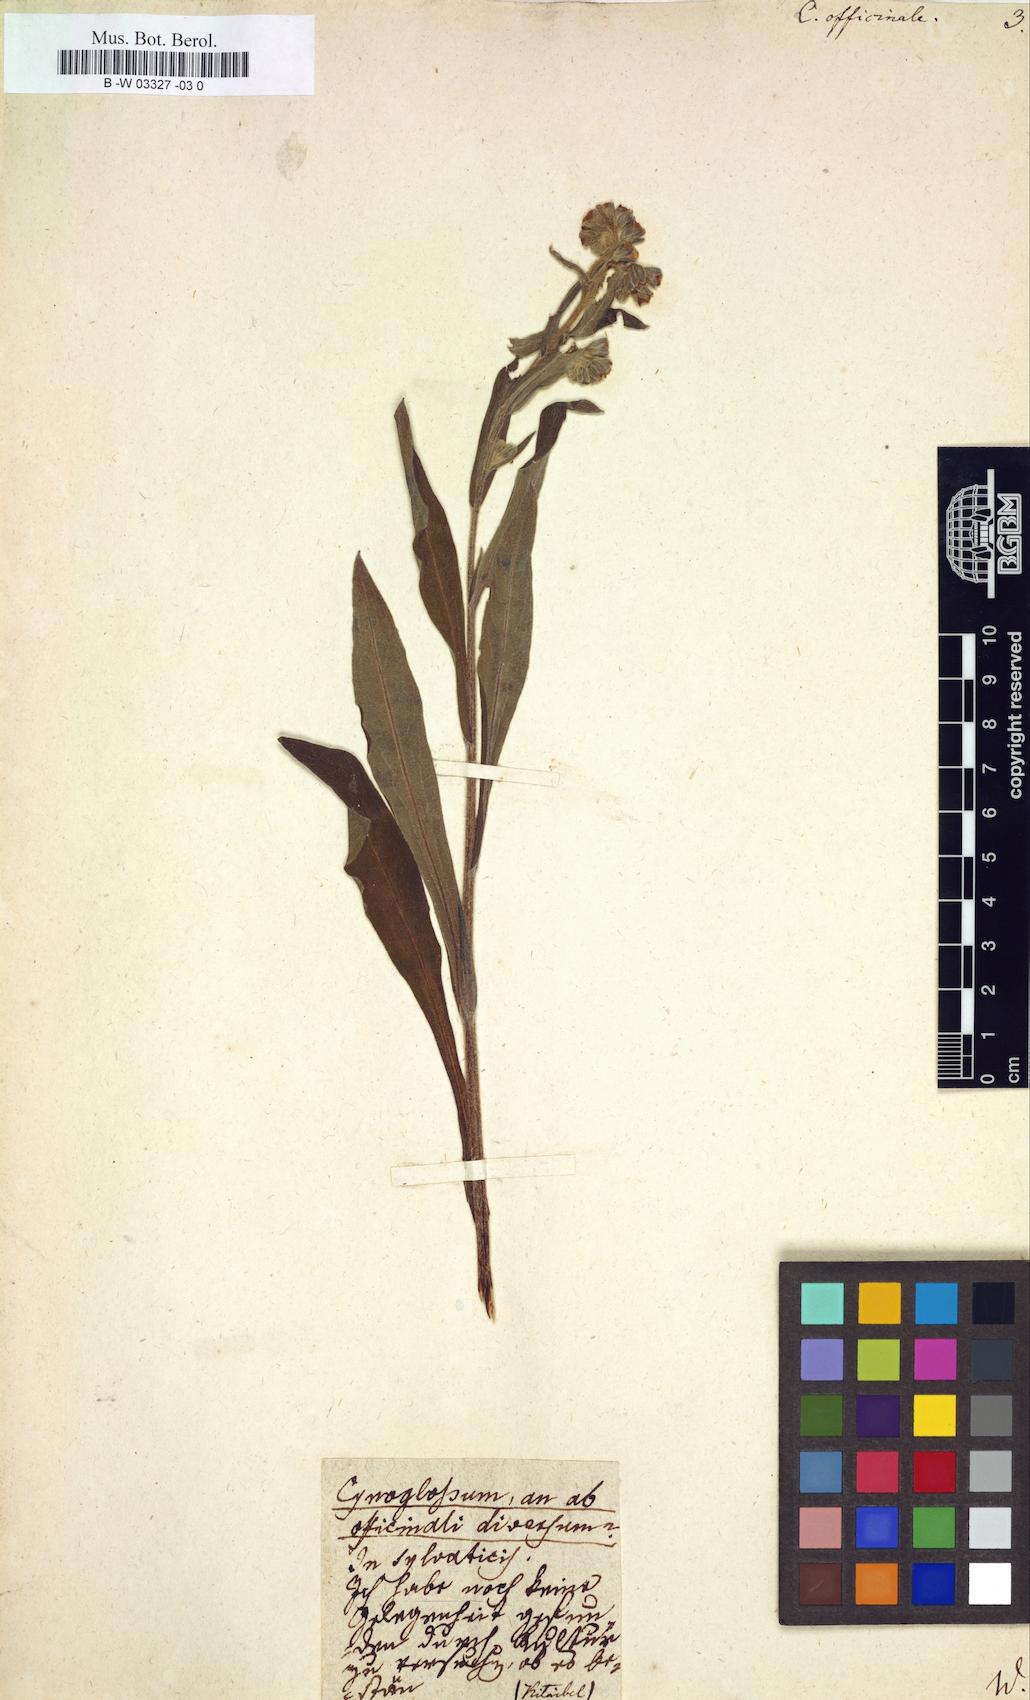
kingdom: Plantae
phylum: Tracheophyta
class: Magnoliopsida
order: Boraginales
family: Boraginaceae
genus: Cynoglossum
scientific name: Cynoglossum officinale
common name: Hound's-tongue
